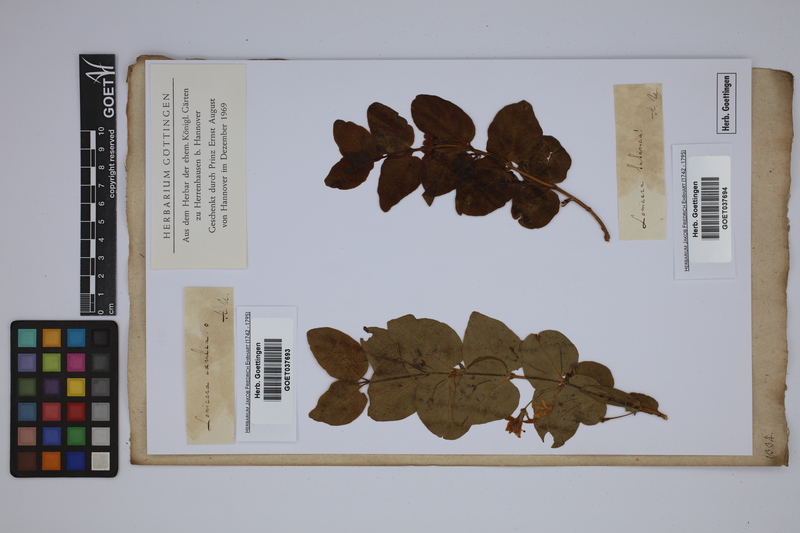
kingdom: Plantae
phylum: Tracheophyta
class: Magnoliopsida
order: Dipsacales
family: Caprifoliaceae
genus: Lonicera
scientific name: Lonicera tatarica
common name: Tatarian honeysuckle
